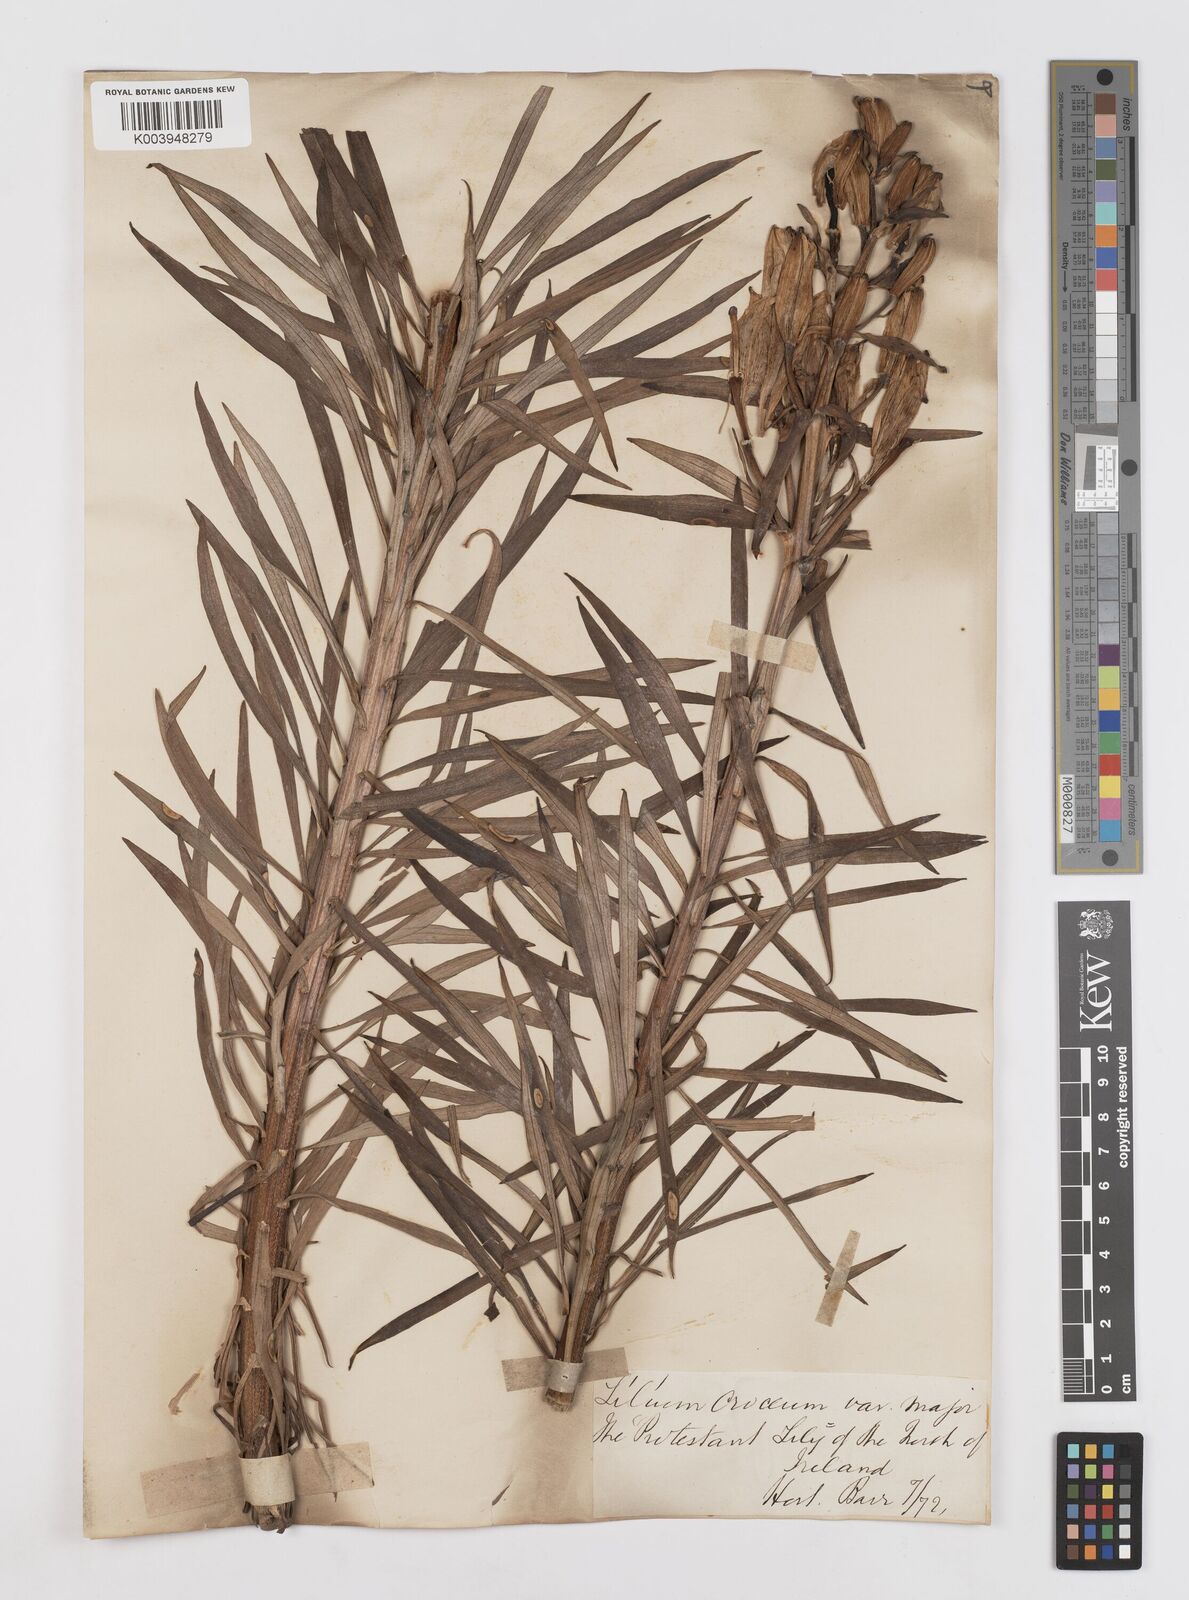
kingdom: Plantae
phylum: Tracheophyta
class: Liliopsida
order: Liliales
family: Liliaceae
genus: Lilium
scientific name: Lilium bulbiferum
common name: Orange lily
